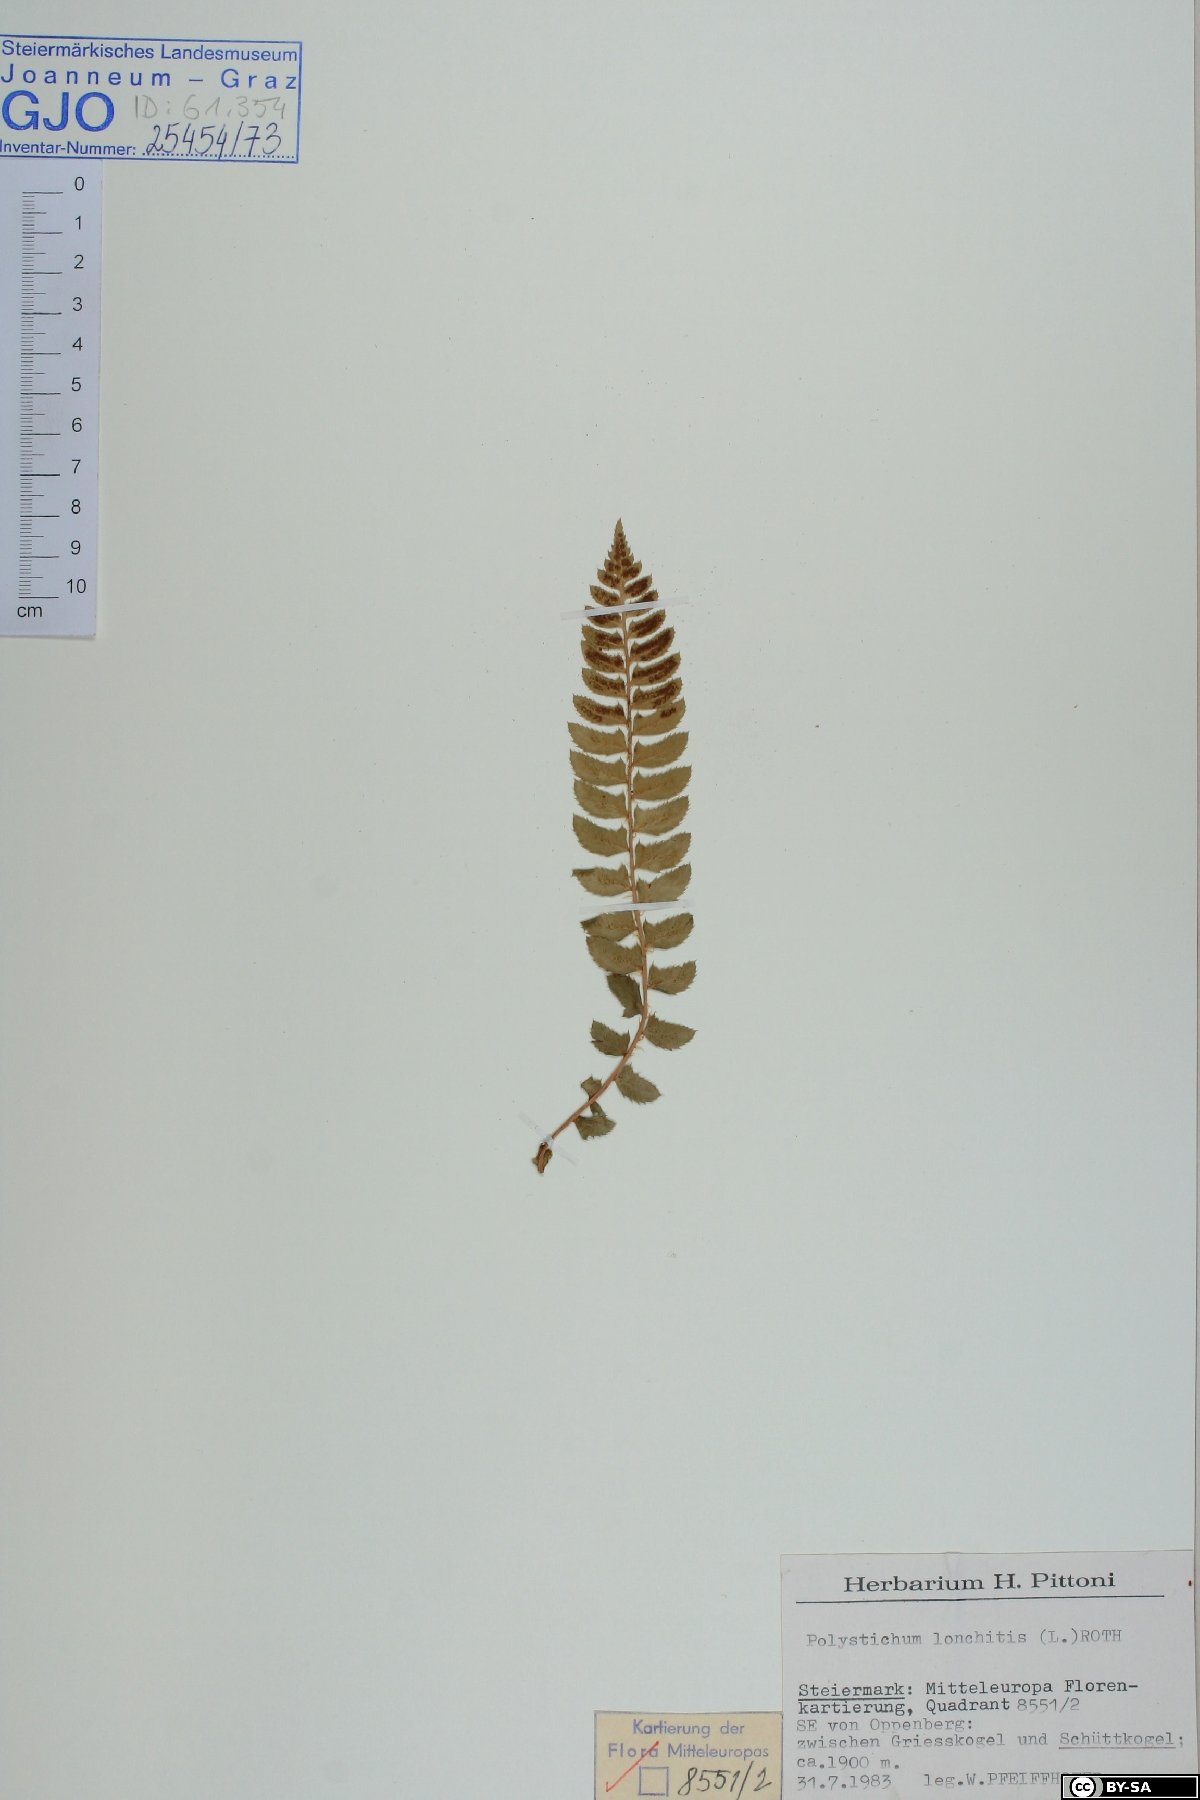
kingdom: Plantae
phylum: Tracheophyta
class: Polypodiopsida
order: Polypodiales
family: Dryopteridaceae
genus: Polystichum
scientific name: Polystichum lonchitis
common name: Holly fern
